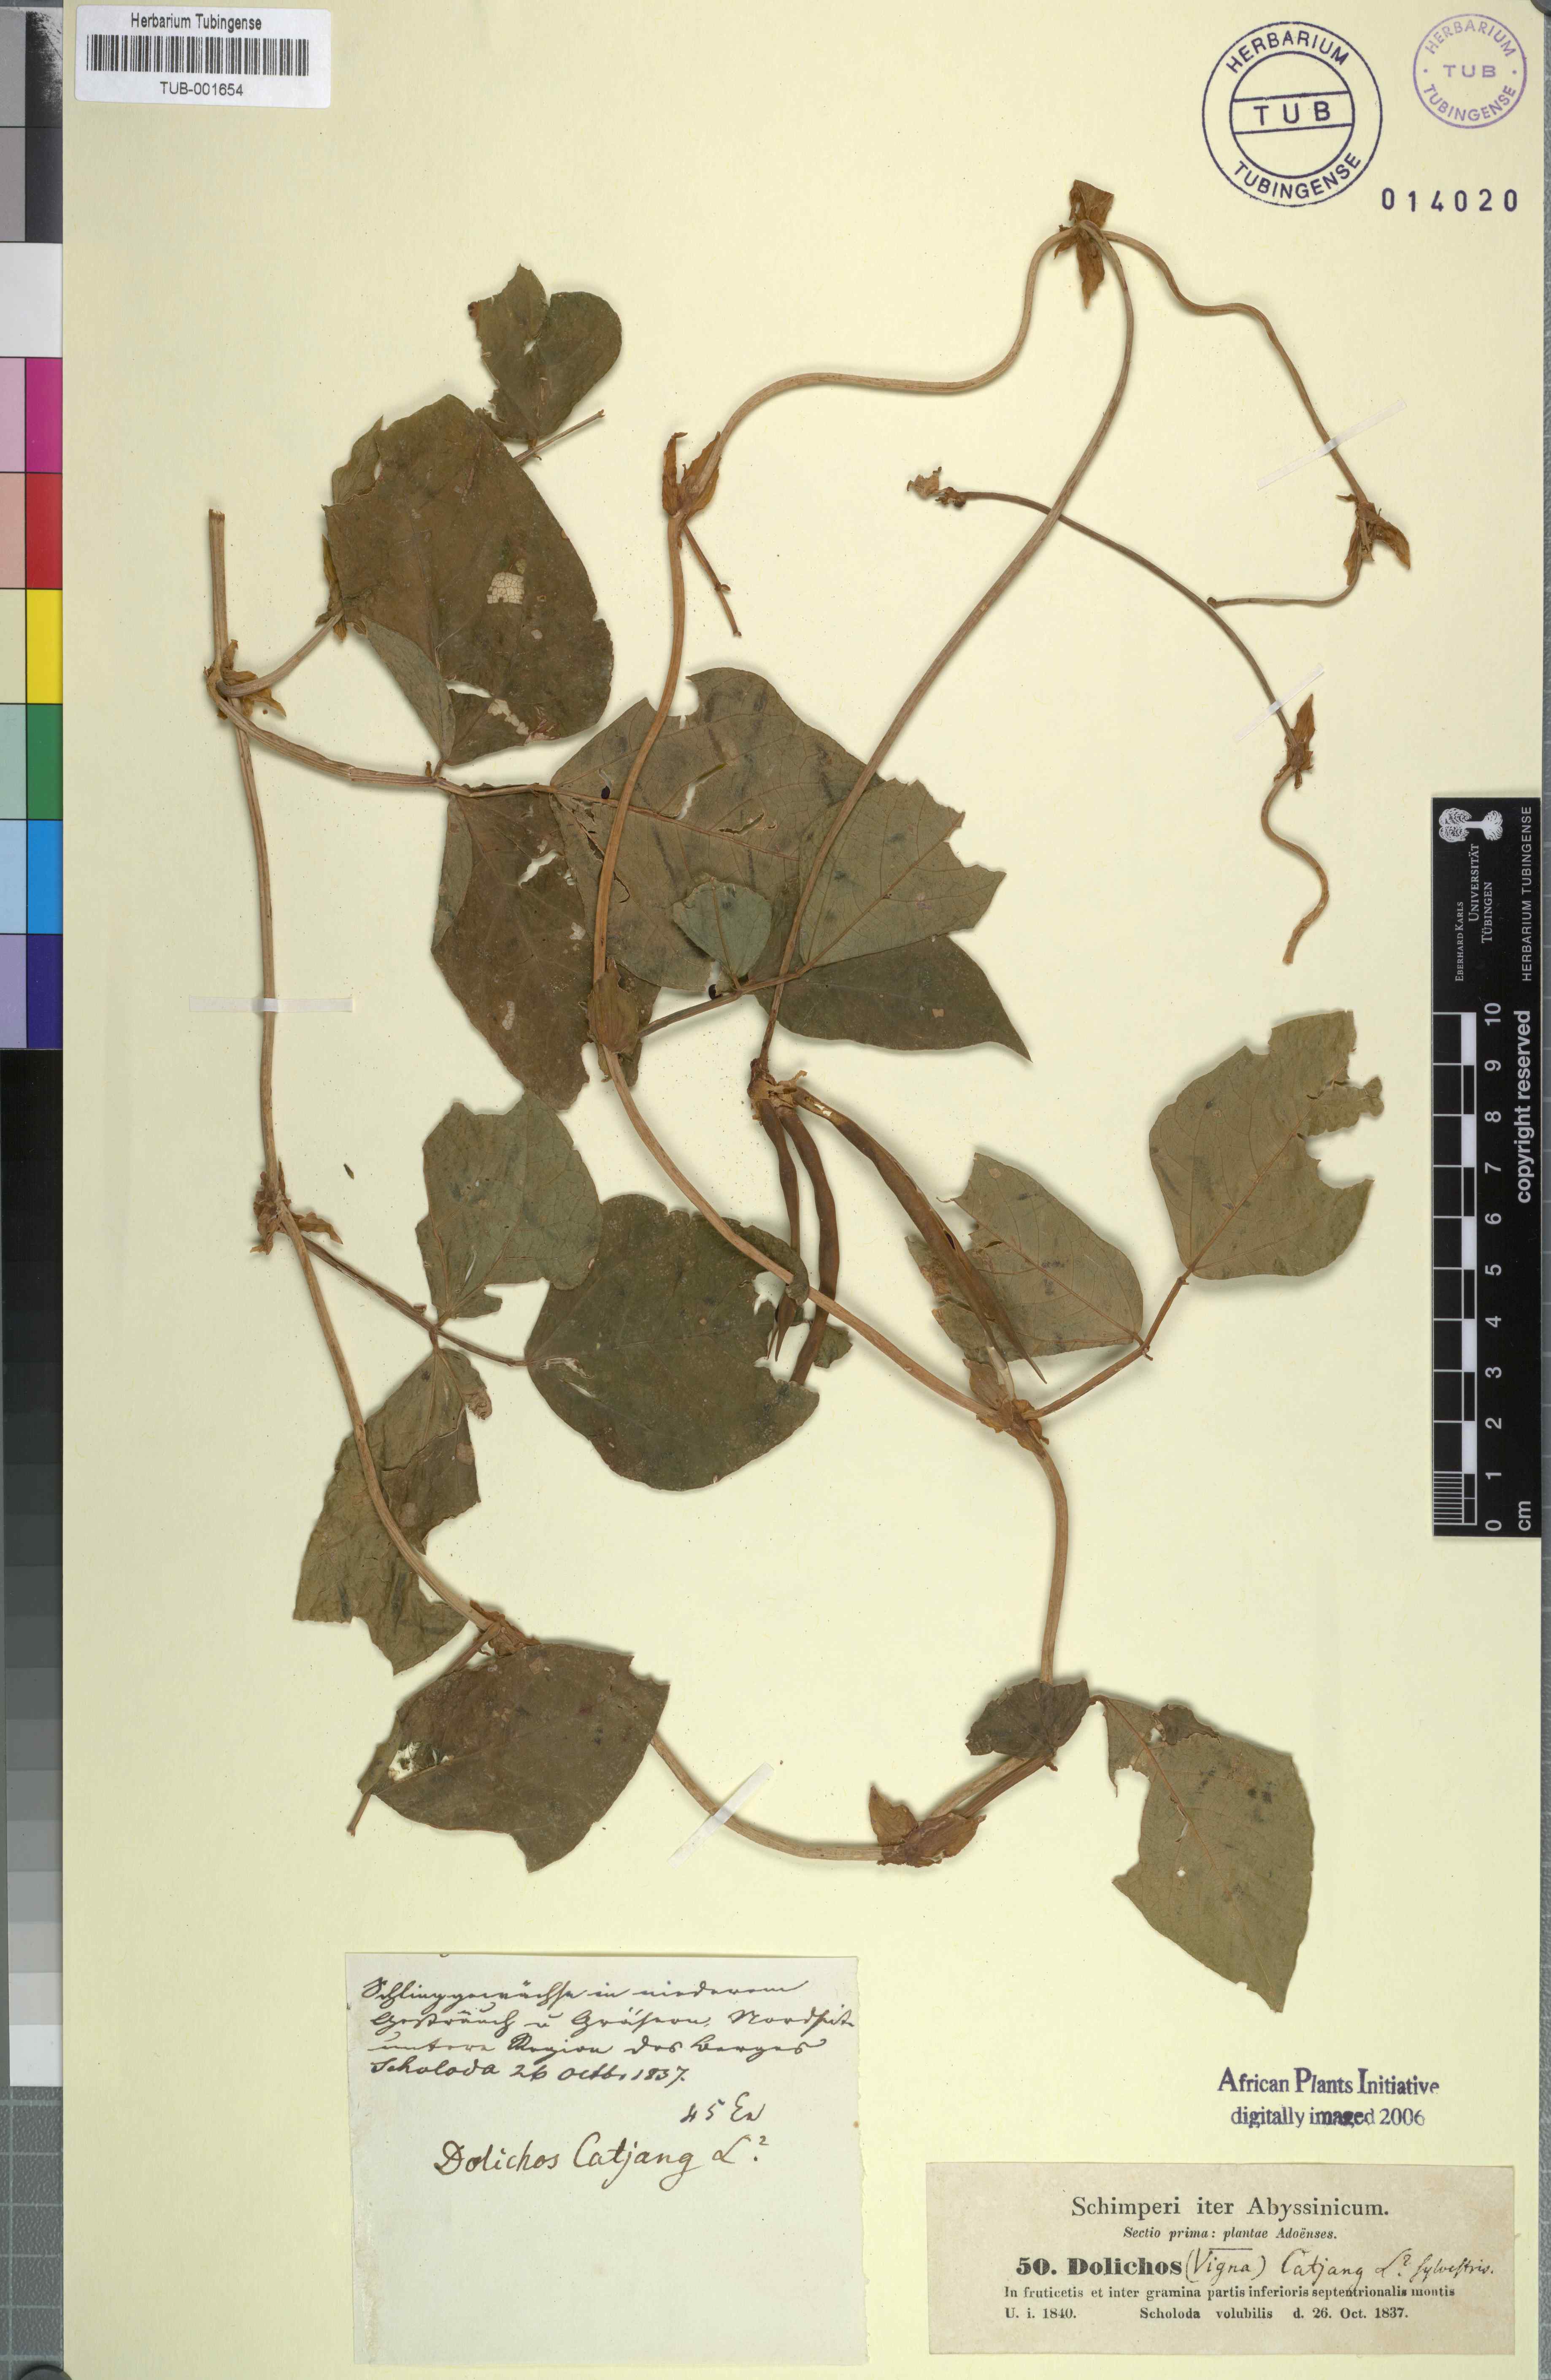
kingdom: Plantae
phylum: Tracheophyta
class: Magnoliopsida
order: Fabales
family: Fabaceae
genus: Vigna
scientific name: Vigna unguiculata
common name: Cowpea
